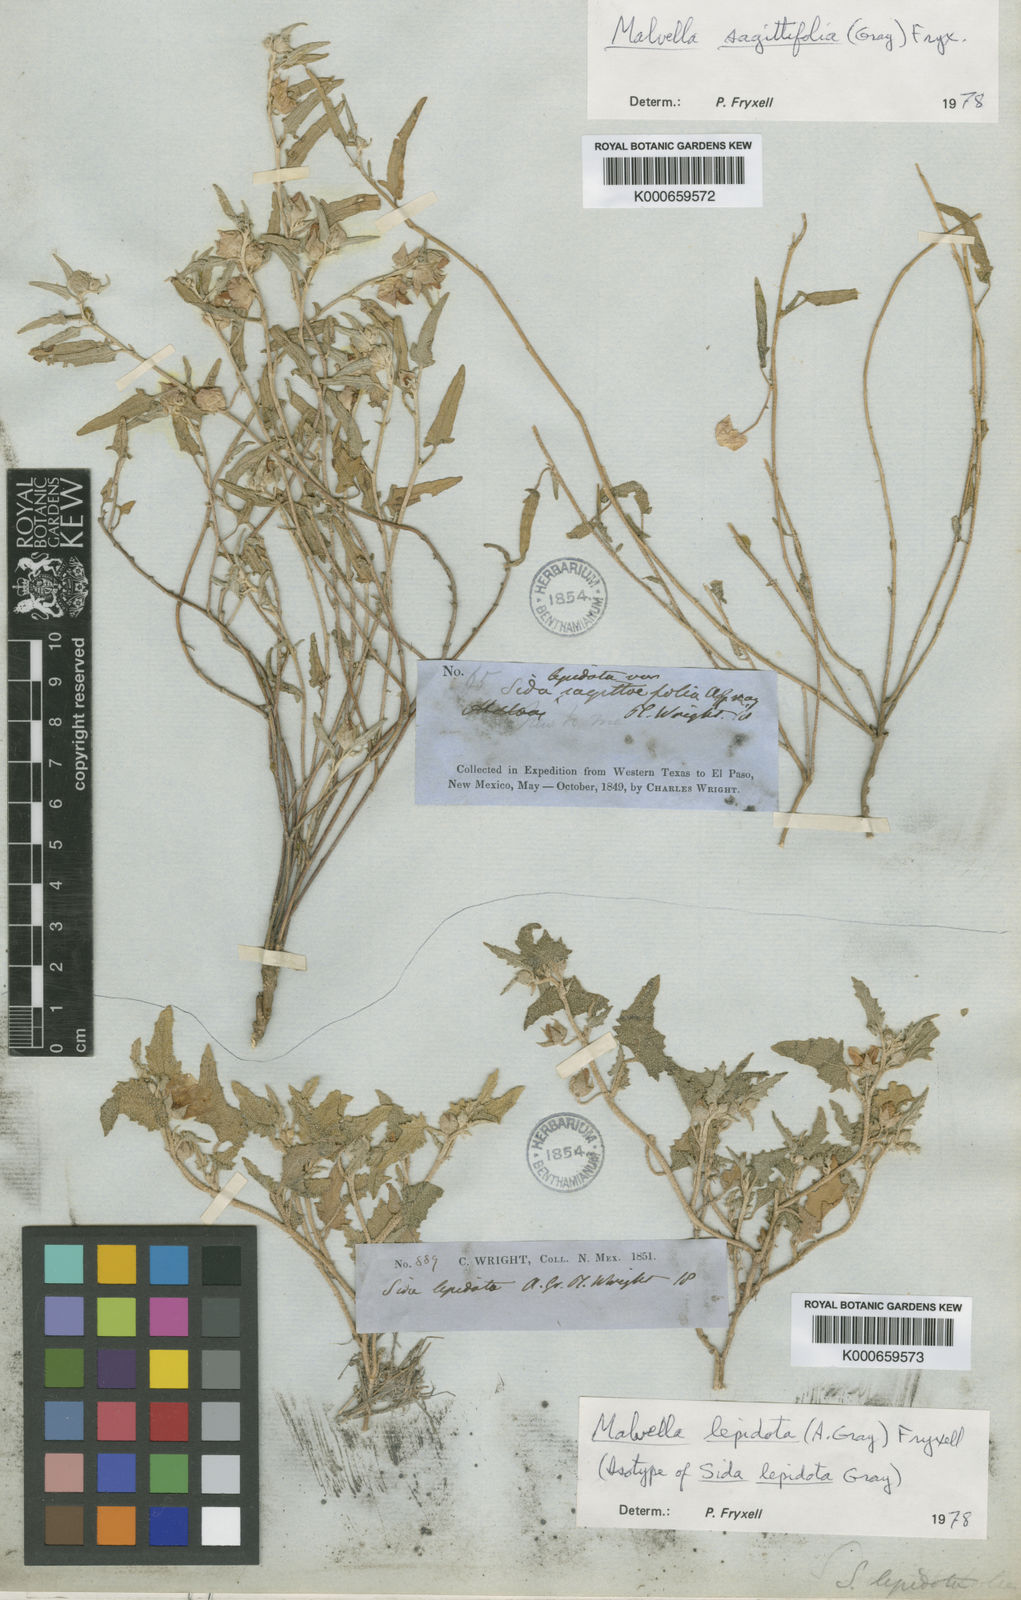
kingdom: Plantae
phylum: Tracheophyta
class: Magnoliopsida
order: Malvales
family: Malvaceae
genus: Malvella
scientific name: Malvella lepidota
